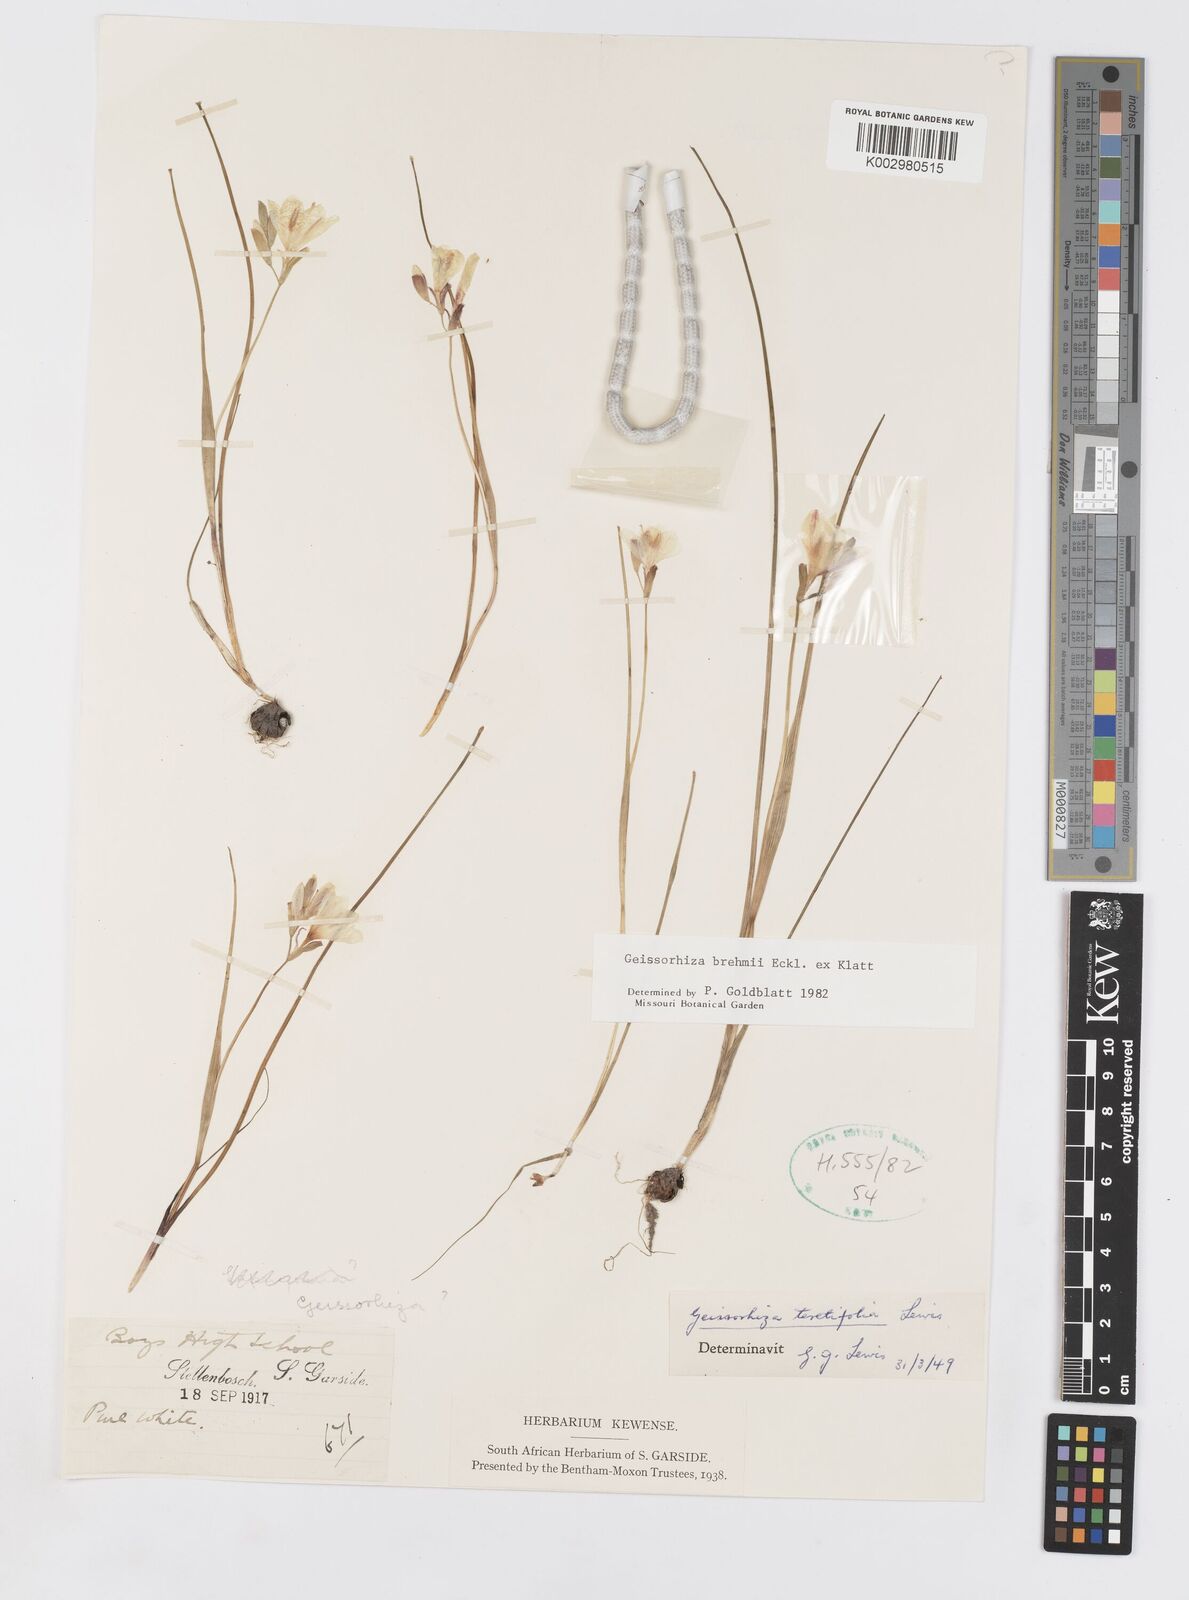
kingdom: Plantae
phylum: Tracheophyta
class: Liliopsida
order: Asparagales
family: Iridaceae
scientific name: Iridaceae
